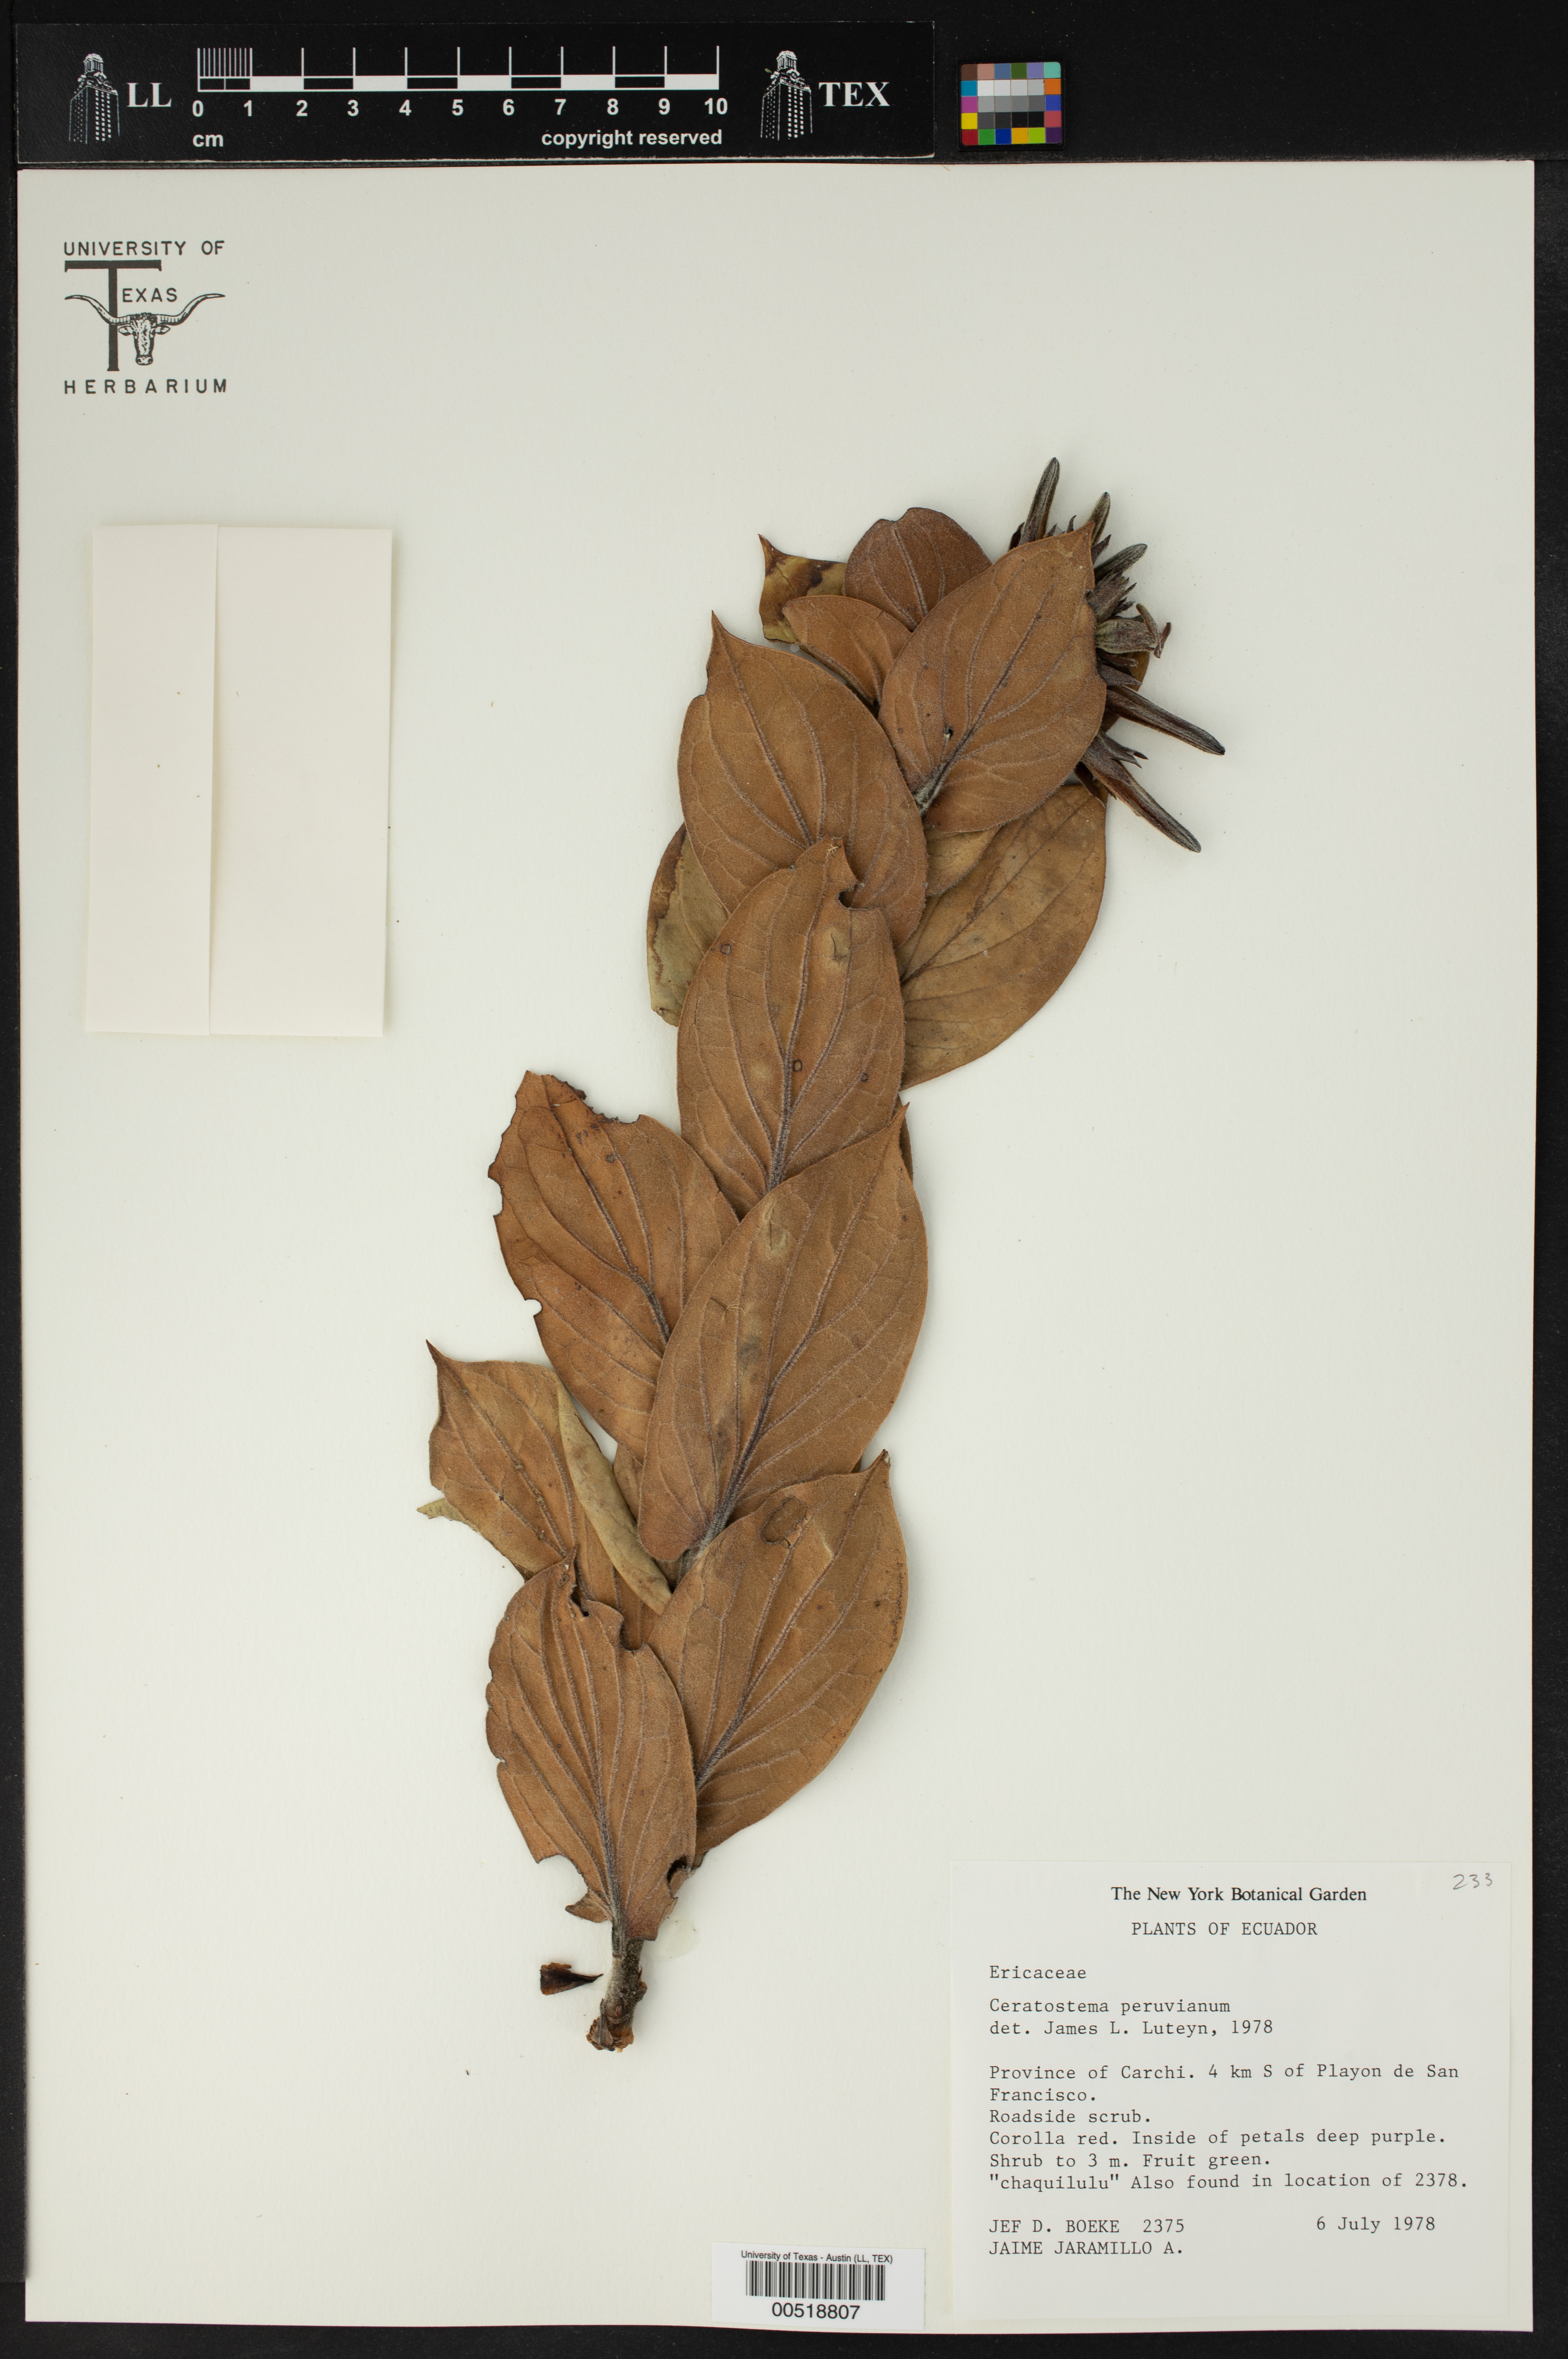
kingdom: Plantae
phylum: Tracheophyta
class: Magnoliopsida
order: Ericales
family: Ericaceae
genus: Ceratostema
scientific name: Ceratostema peruvianum
